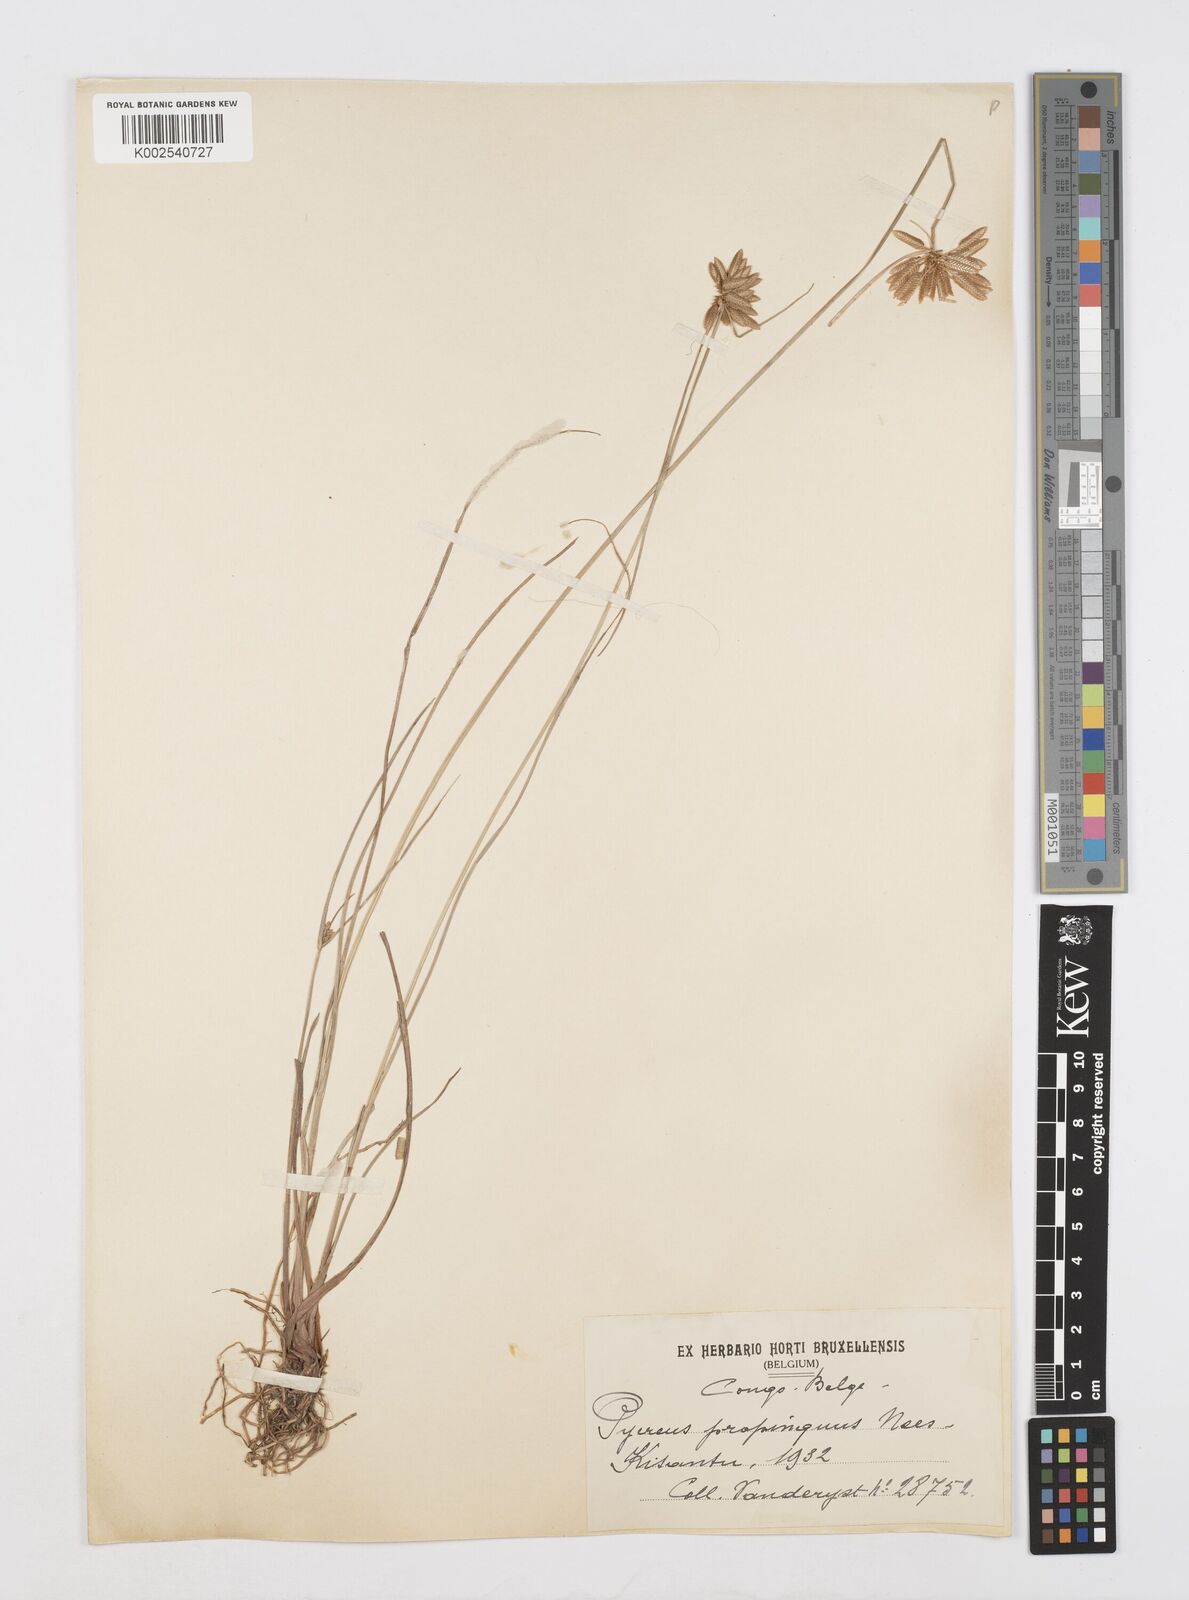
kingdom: Plantae
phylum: Tracheophyta
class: Liliopsida
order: Poales
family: Cyperaceae
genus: Cyperus
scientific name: Cyperus
